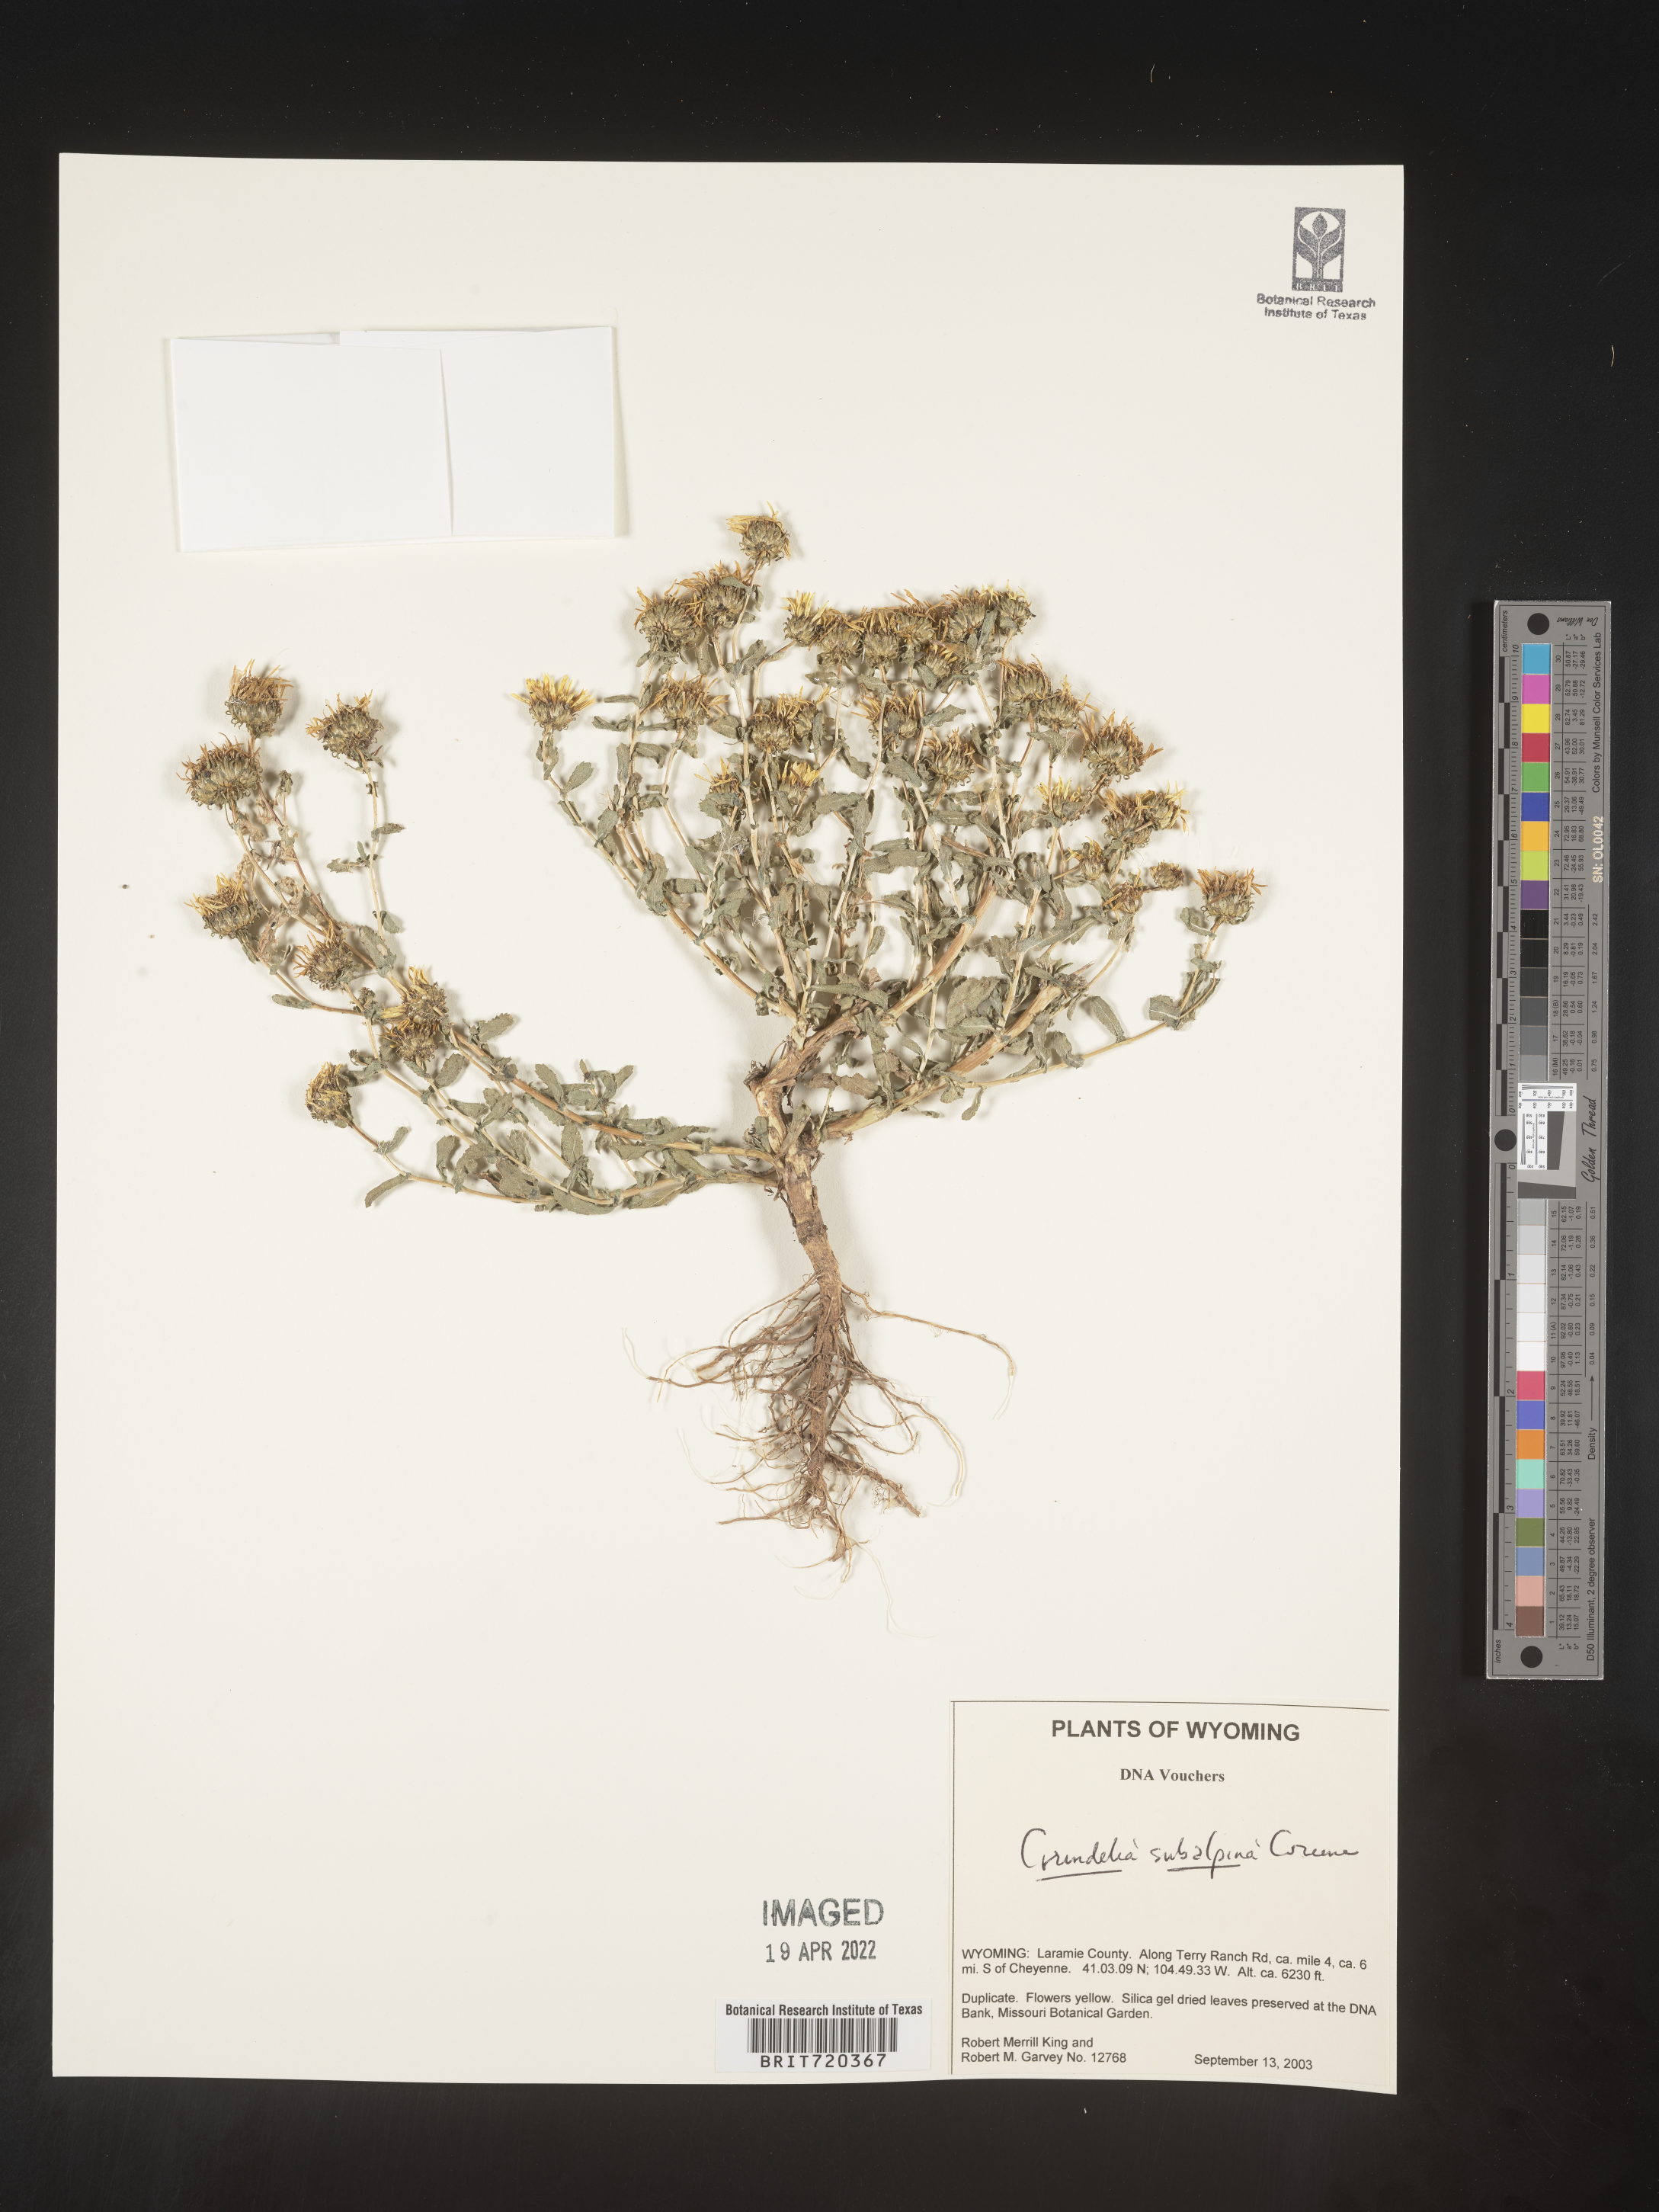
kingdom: Plantae
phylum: Tracheophyta
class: Magnoliopsida
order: Asterales
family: Asteraceae
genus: Grindelia
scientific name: Grindelia subalpina
